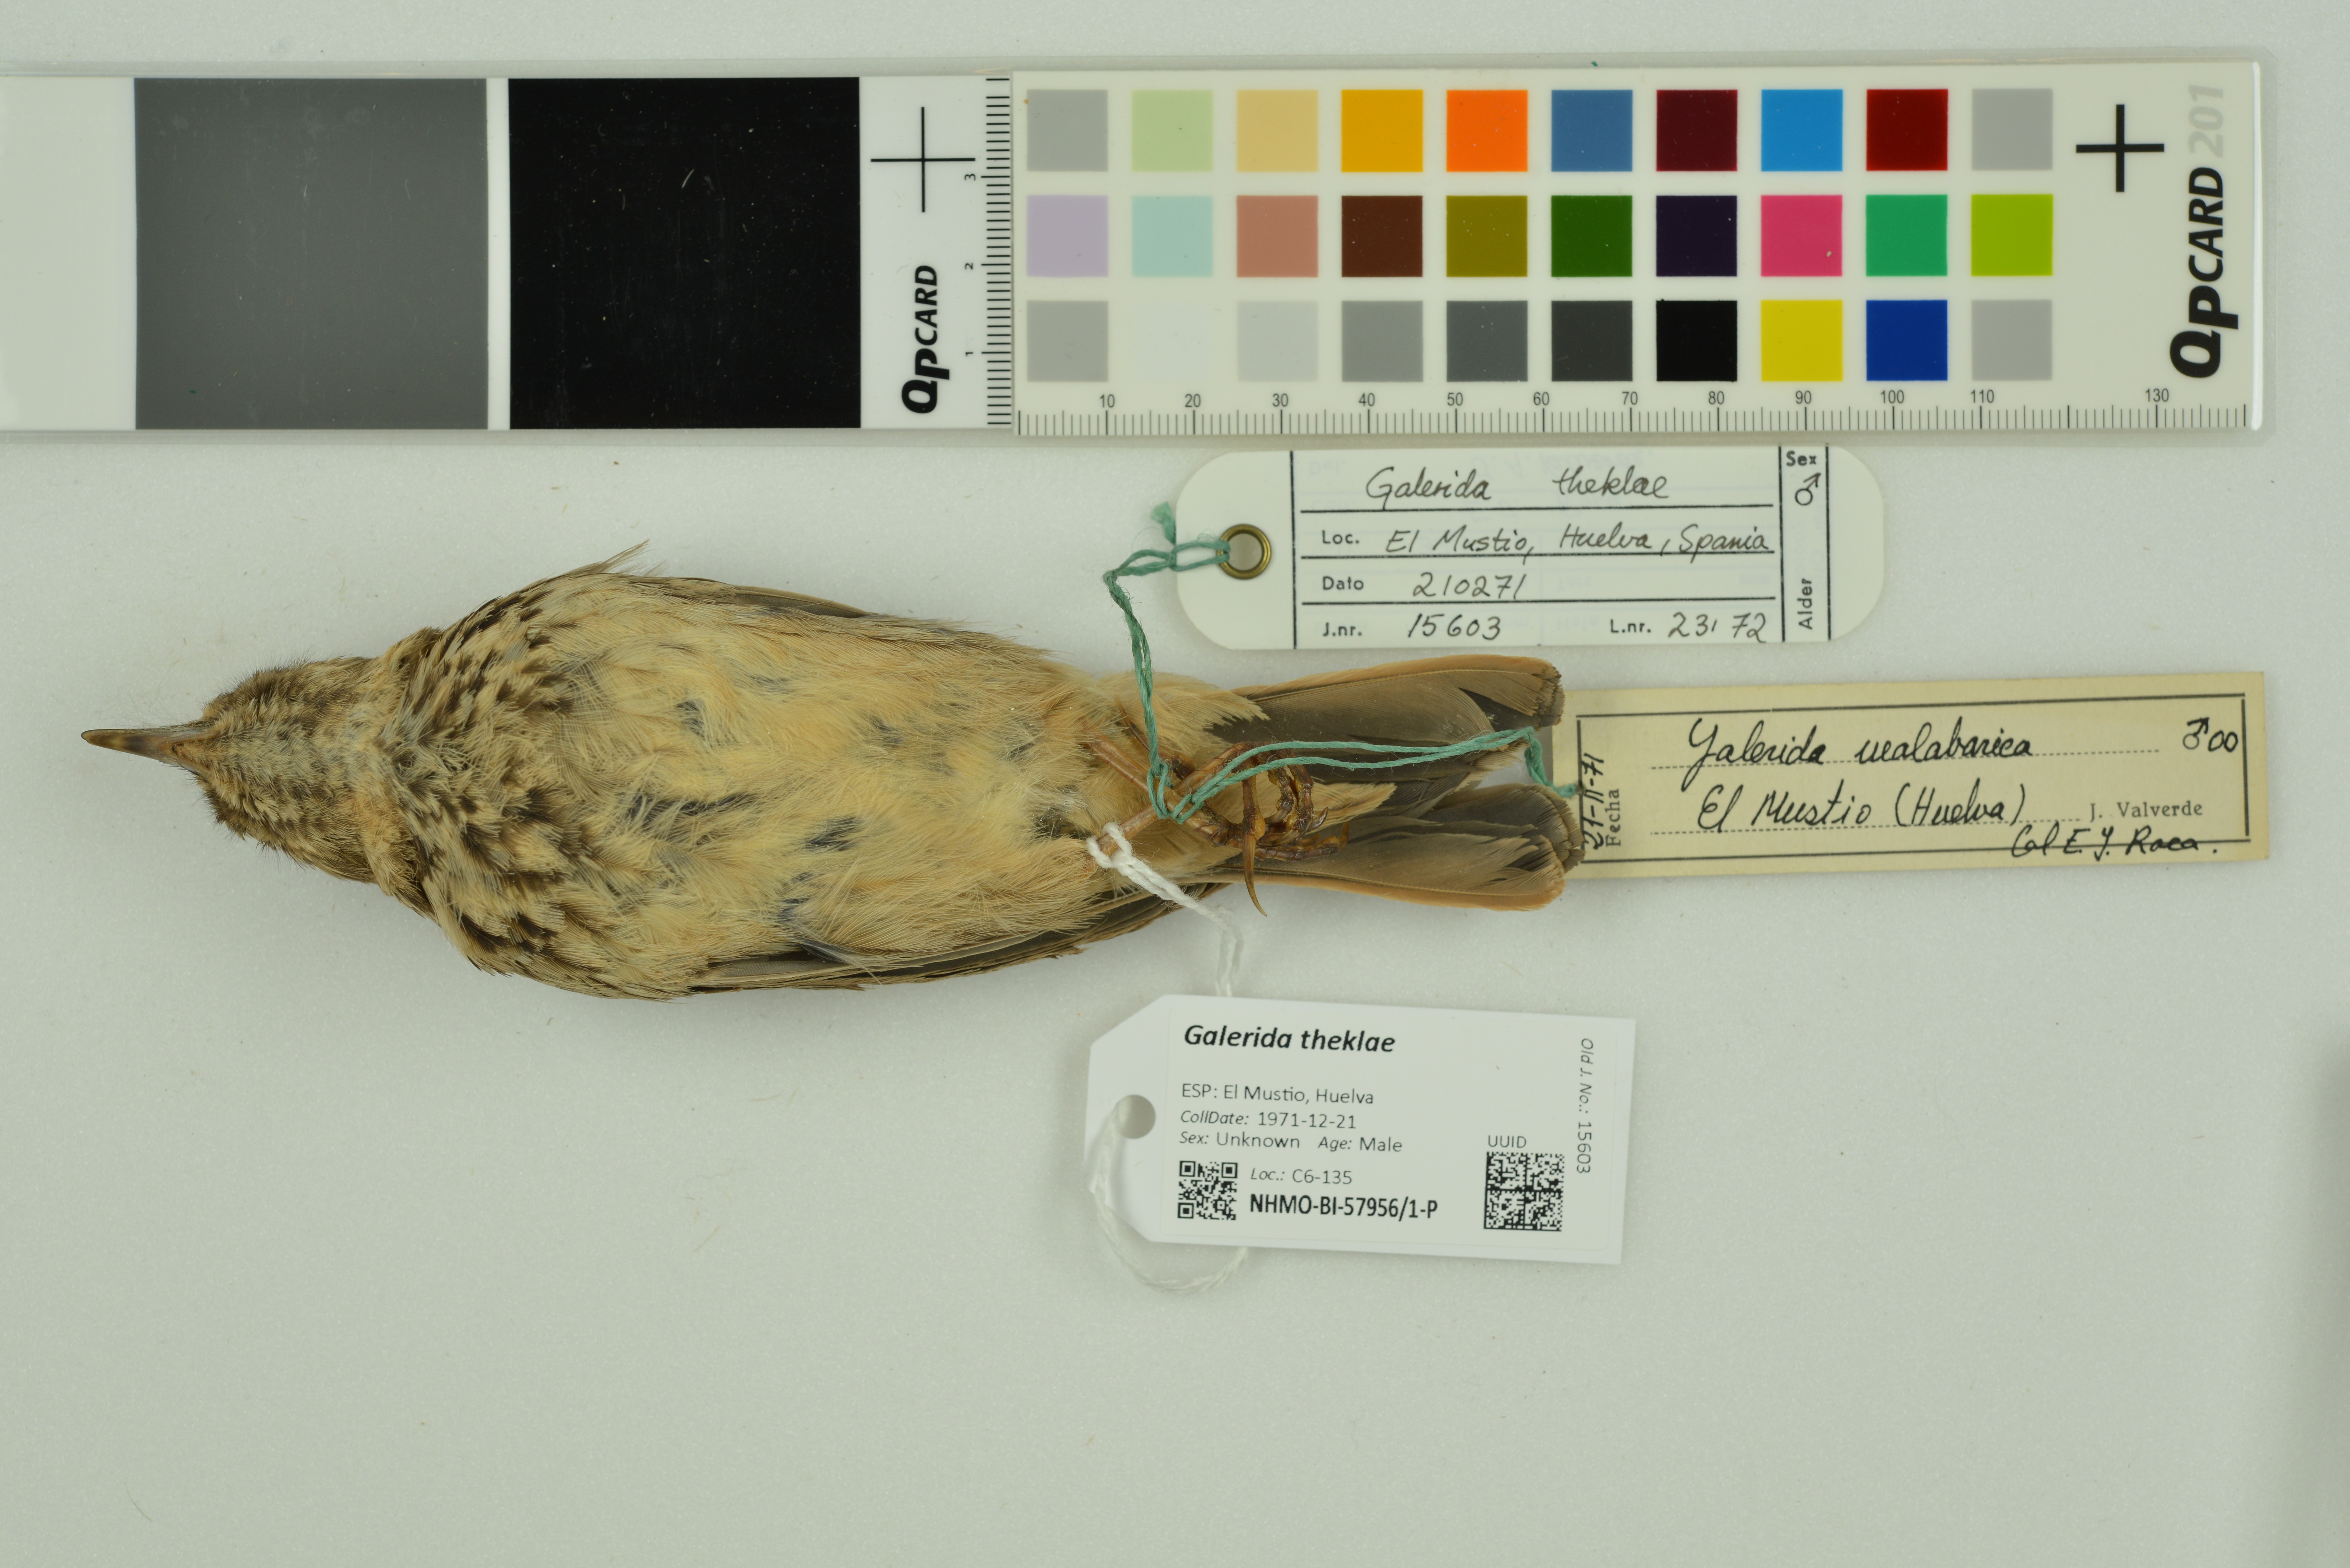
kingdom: Animalia
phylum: Chordata
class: Aves
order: Passeriformes
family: Alaudidae
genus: Galerida
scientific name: Galerida theklae
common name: Thekla lark
